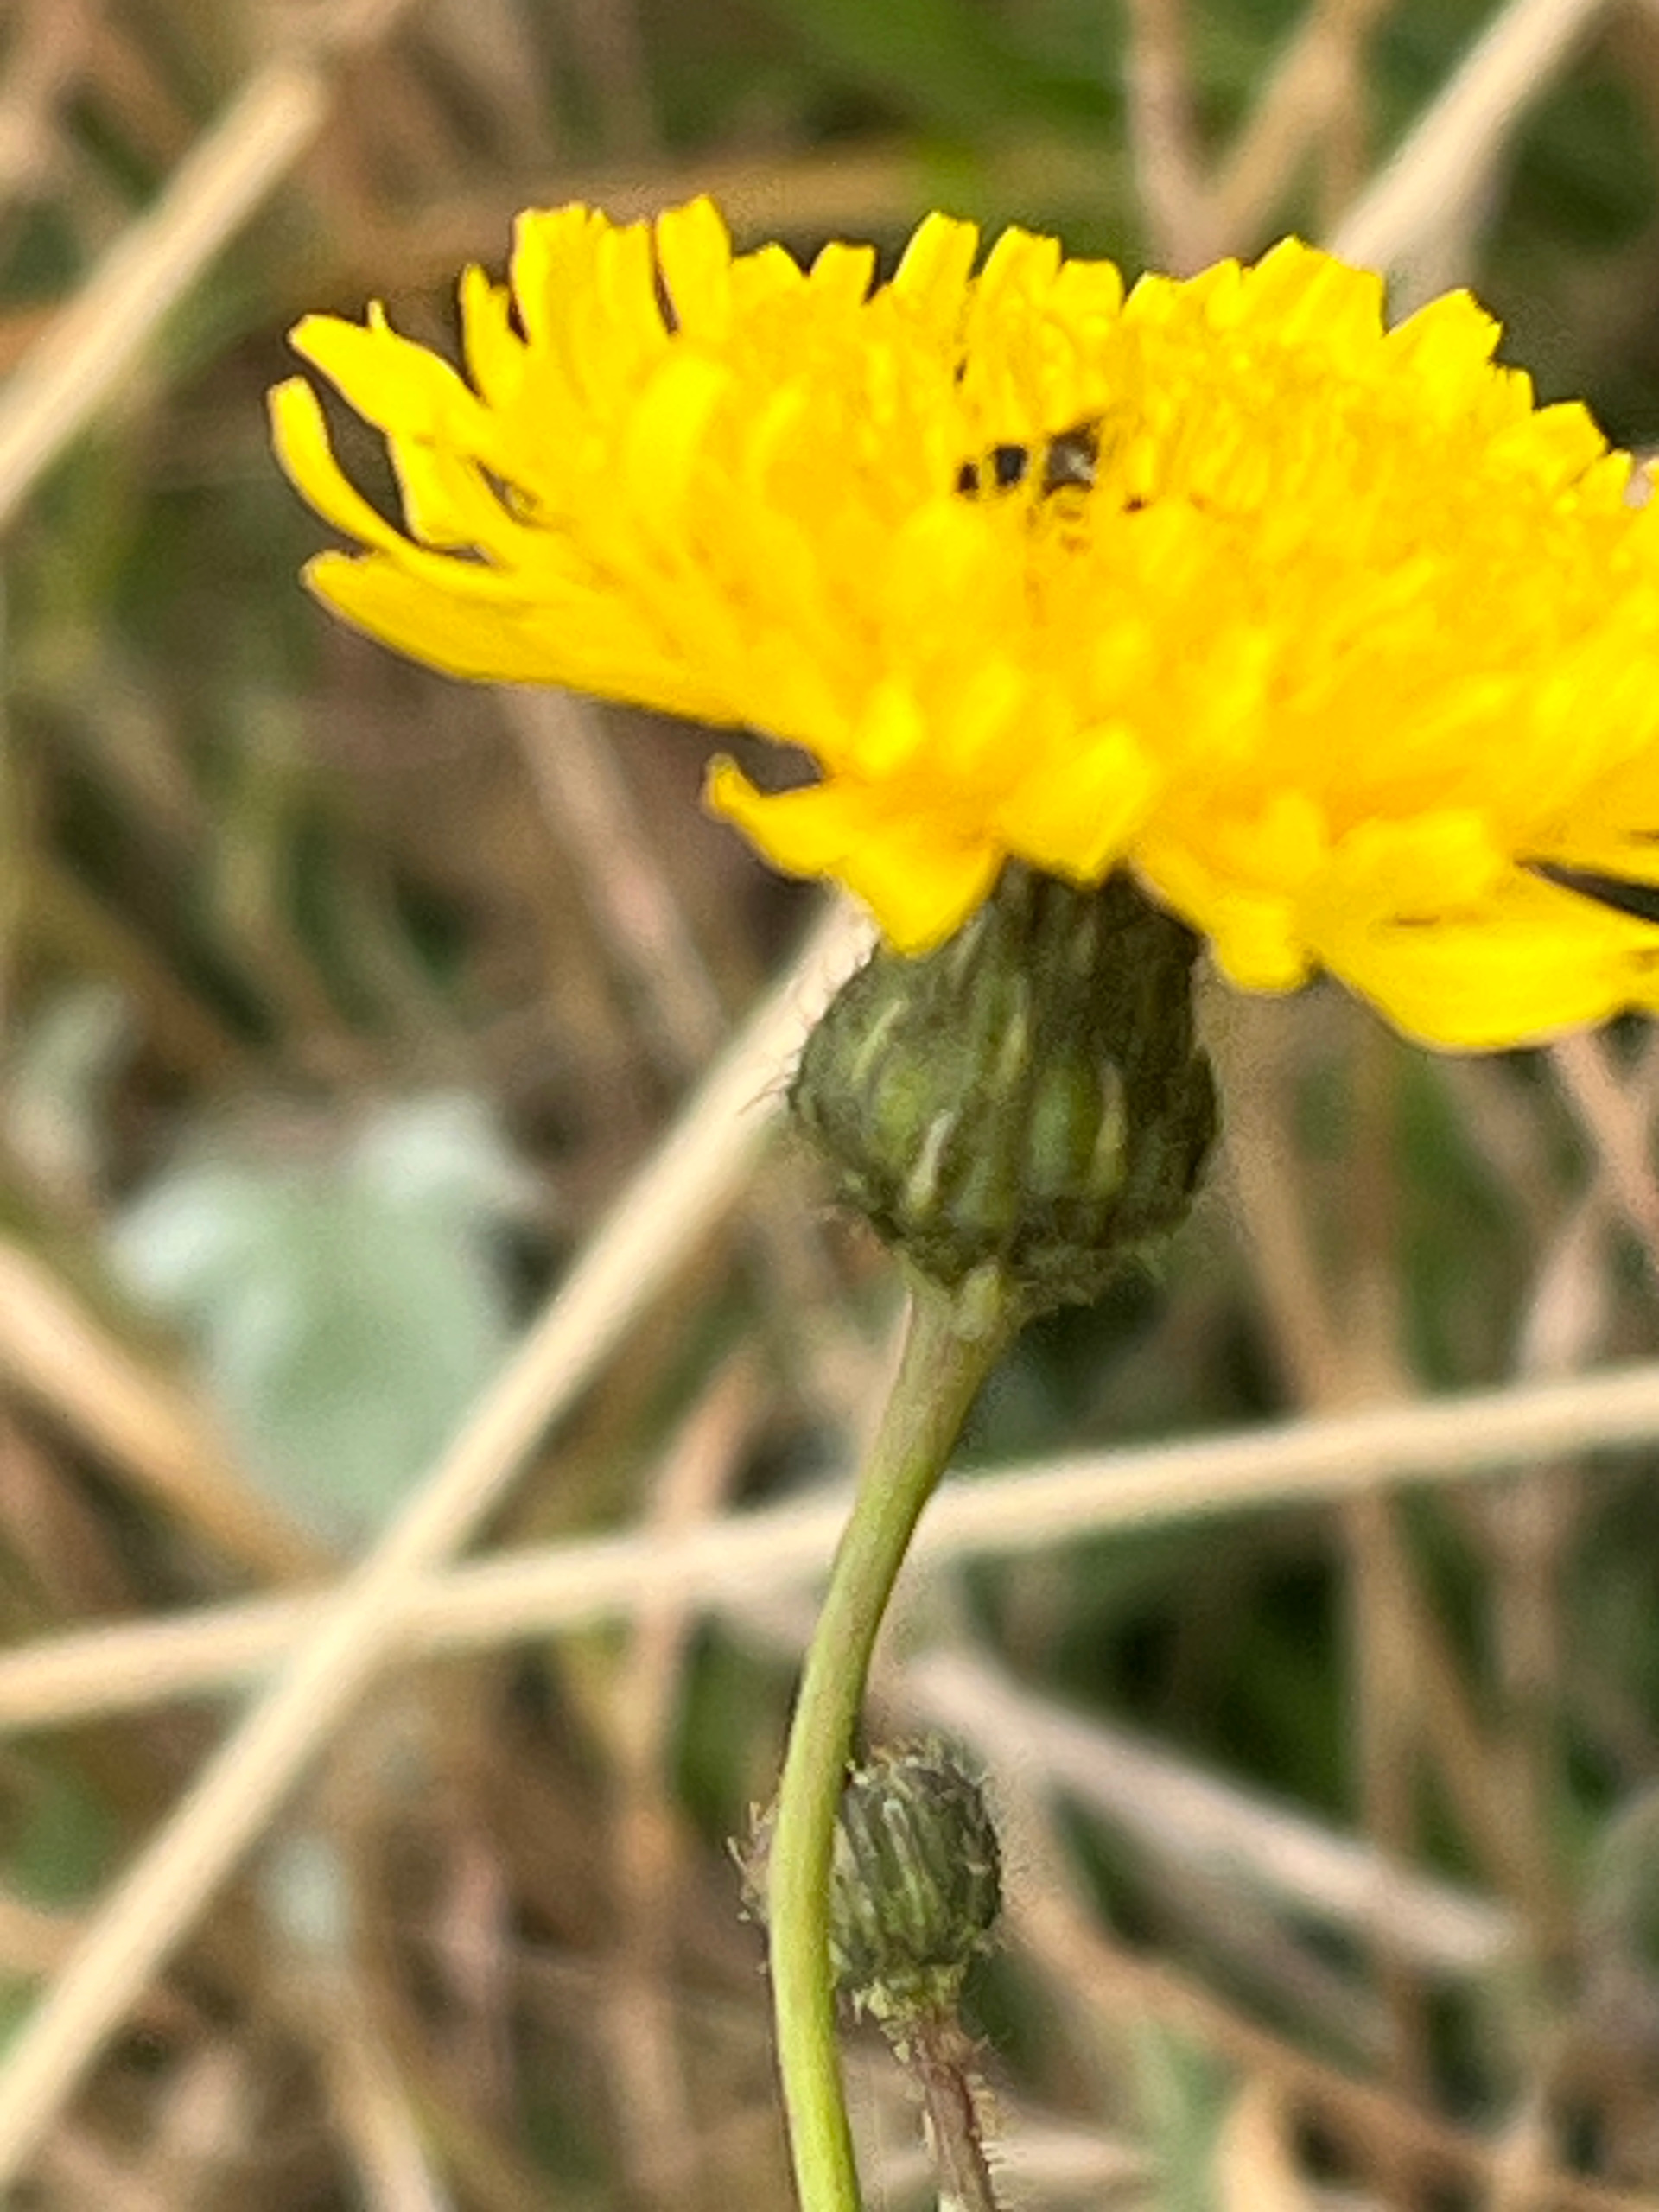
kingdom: Plantae
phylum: Tracheophyta
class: Magnoliopsida
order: Asterales
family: Asteraceae
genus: Sonchus
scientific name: Sonchus arvensis
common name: Ager-svinemælk
